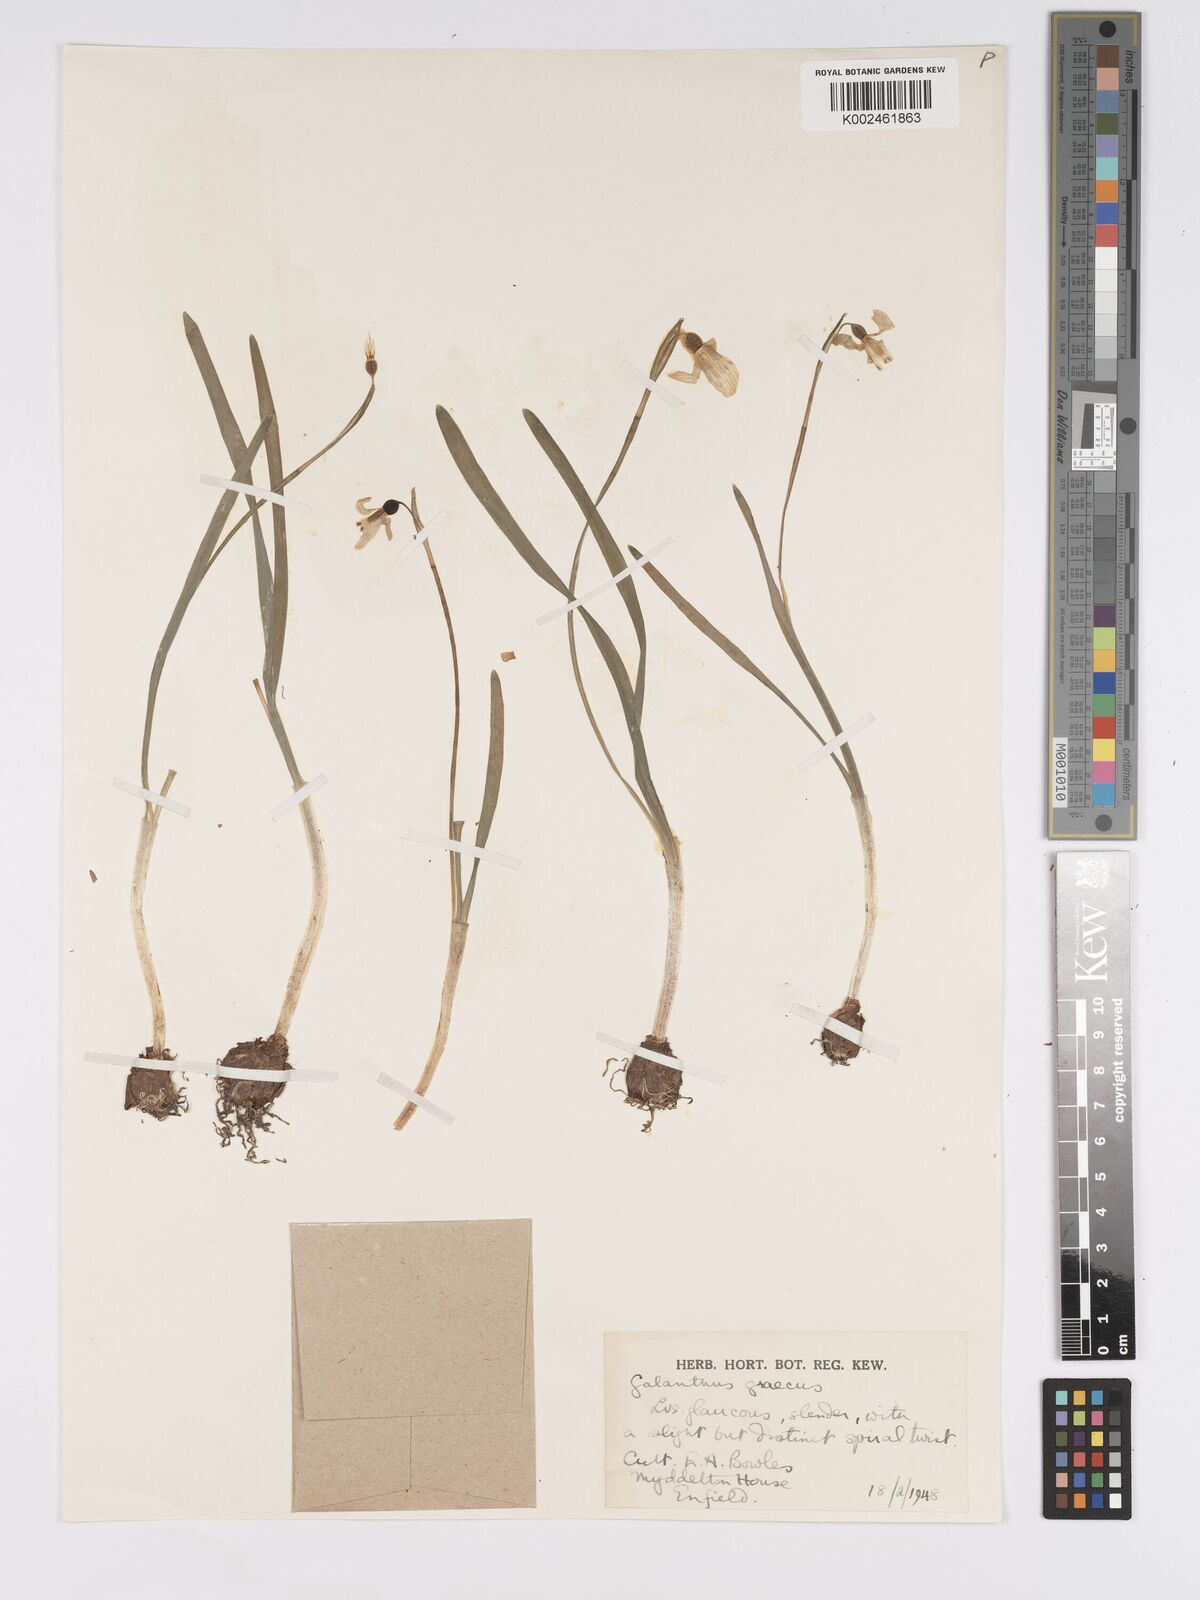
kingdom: Plantae
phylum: Tracheophyta
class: Liliopsida
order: Asparagales
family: Amaryllidaceae
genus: Galanthus
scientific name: Galanthus elwesii
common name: Greater snowdrop
